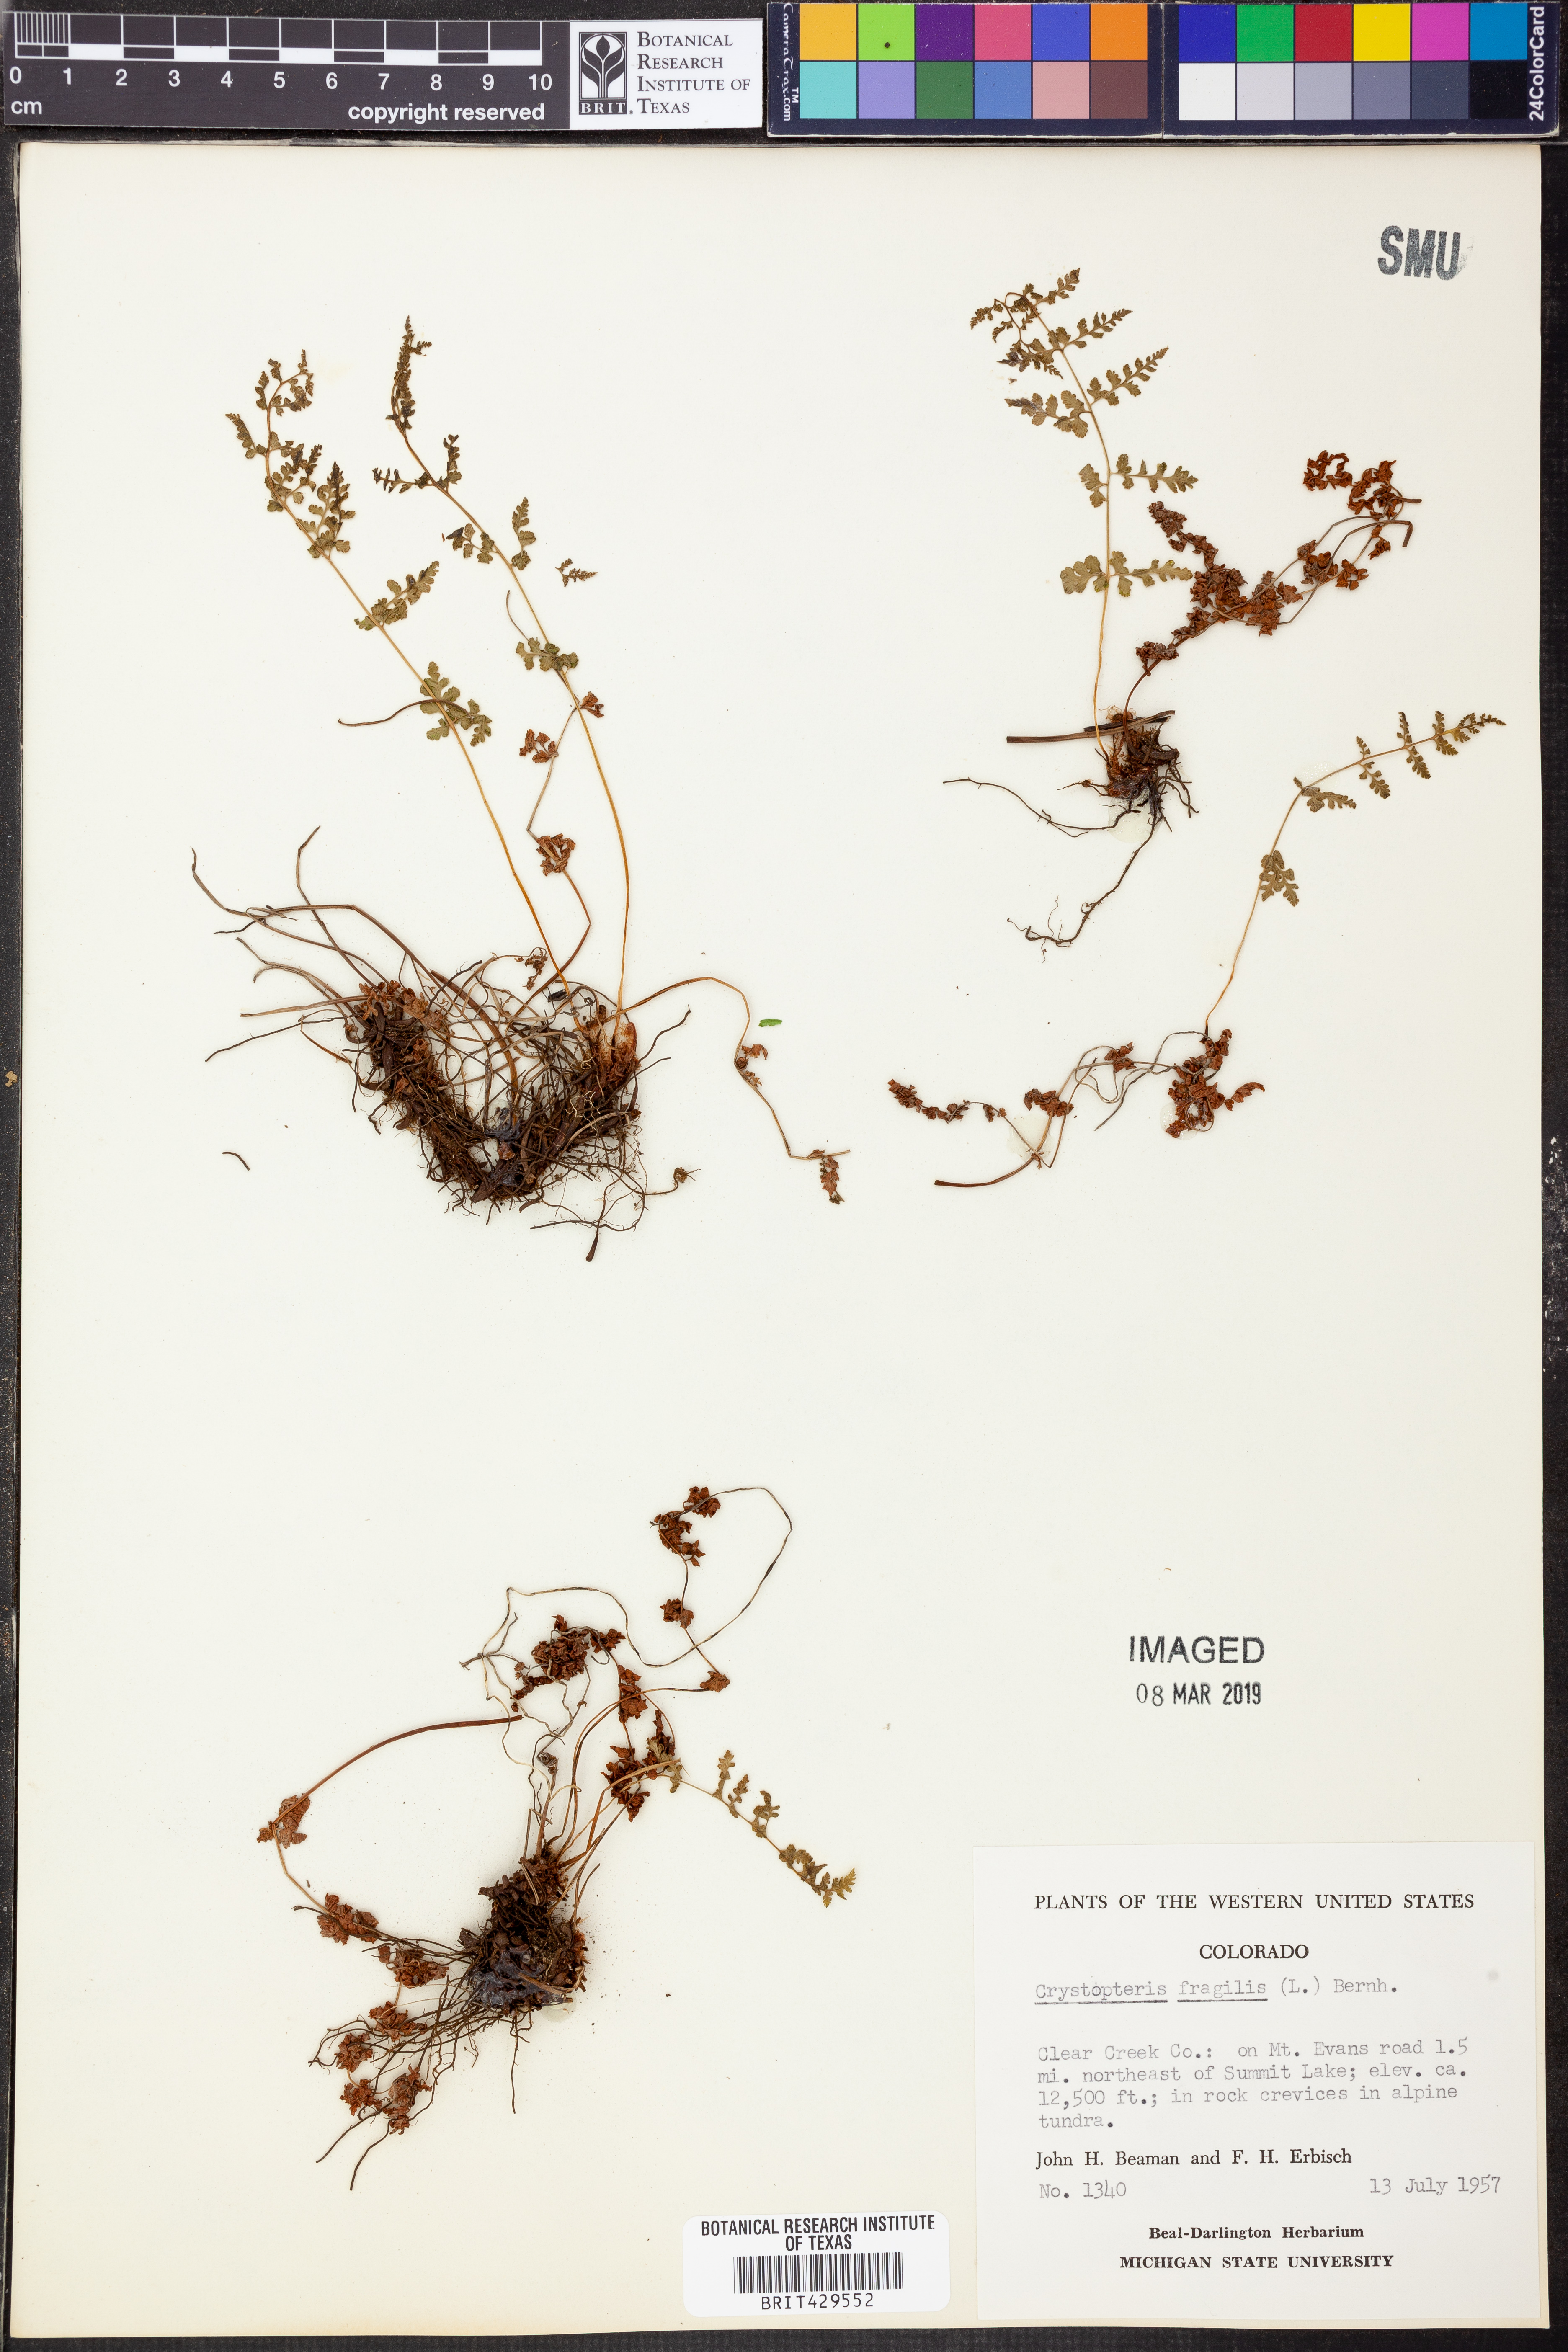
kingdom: Plantae
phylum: Tracheophyta
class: Polypodiopsida
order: Polypodiales
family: Cystopteridaceae
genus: Cystopteris
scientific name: Cystopteris fragilis
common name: Brittle bladder fern
